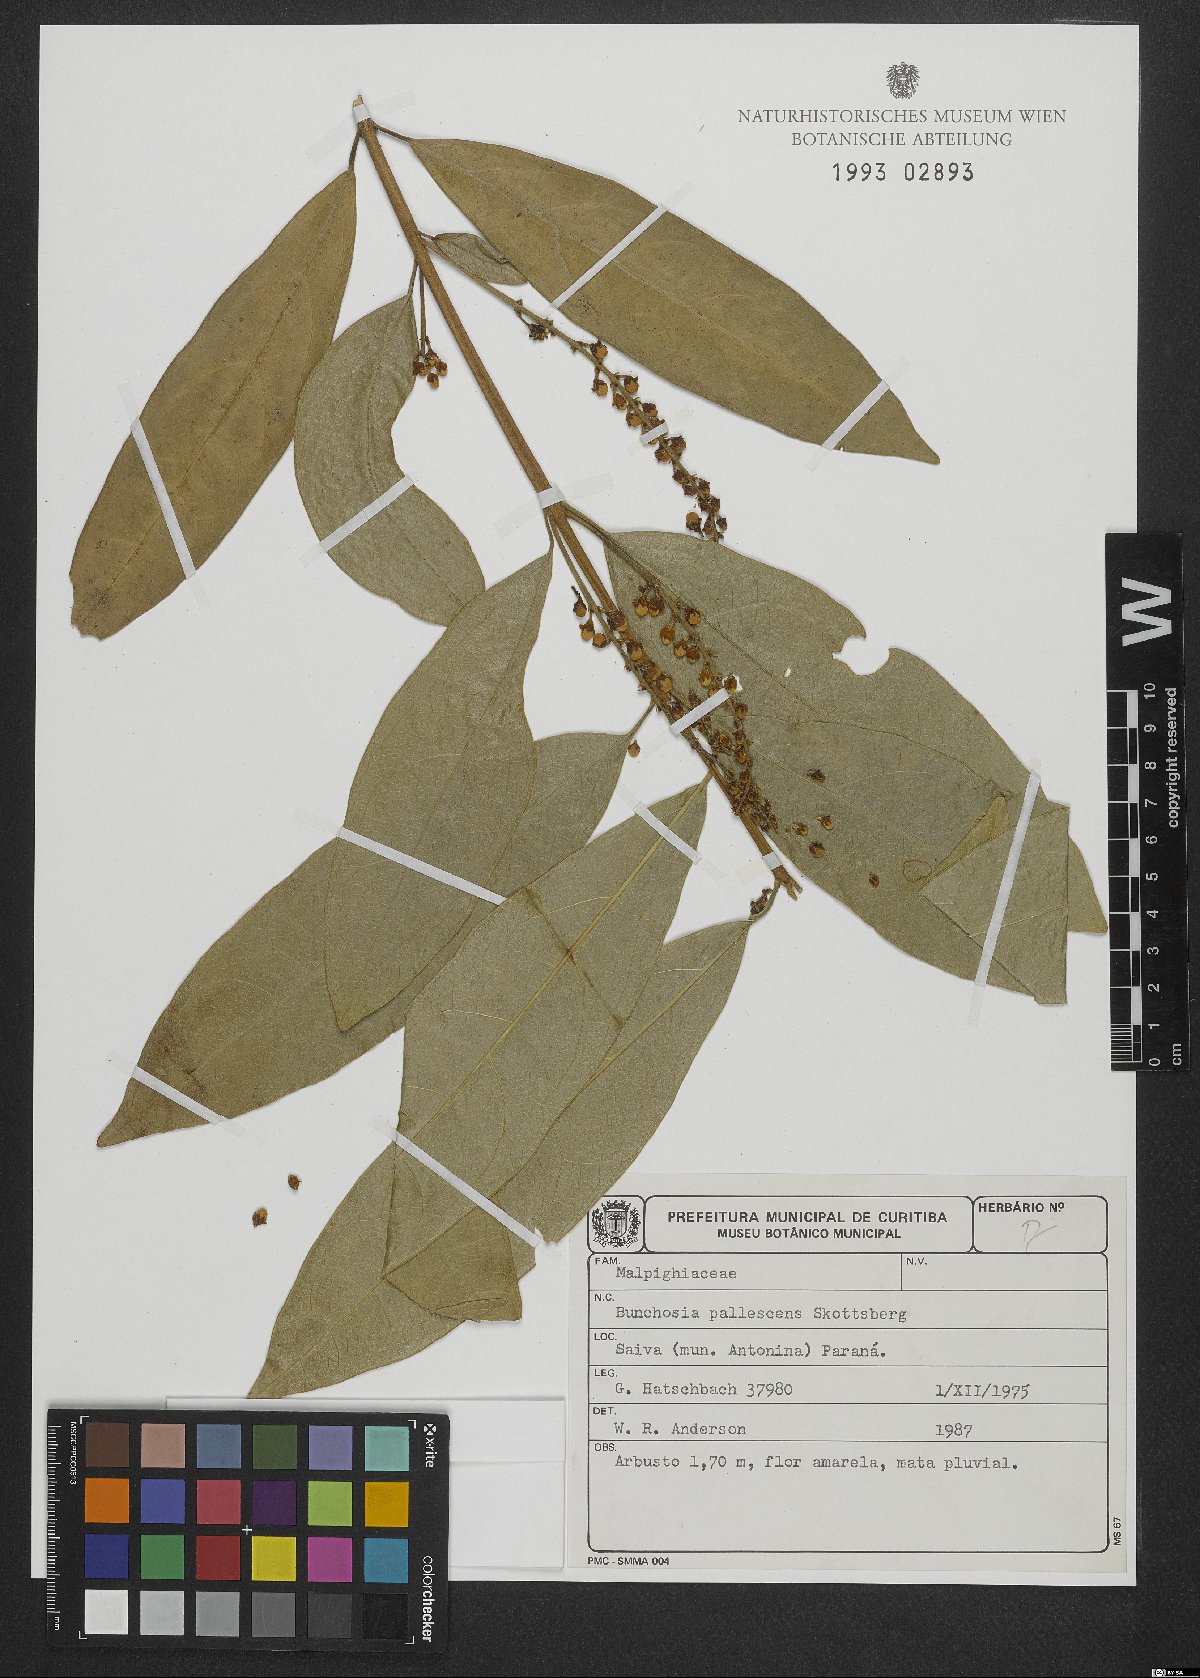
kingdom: Plantae
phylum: Tracheophyta
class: Magnoliopsida
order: Malpighiales
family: Malpighiaceae
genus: Bunchosia
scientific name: Bunchosia pallescens
